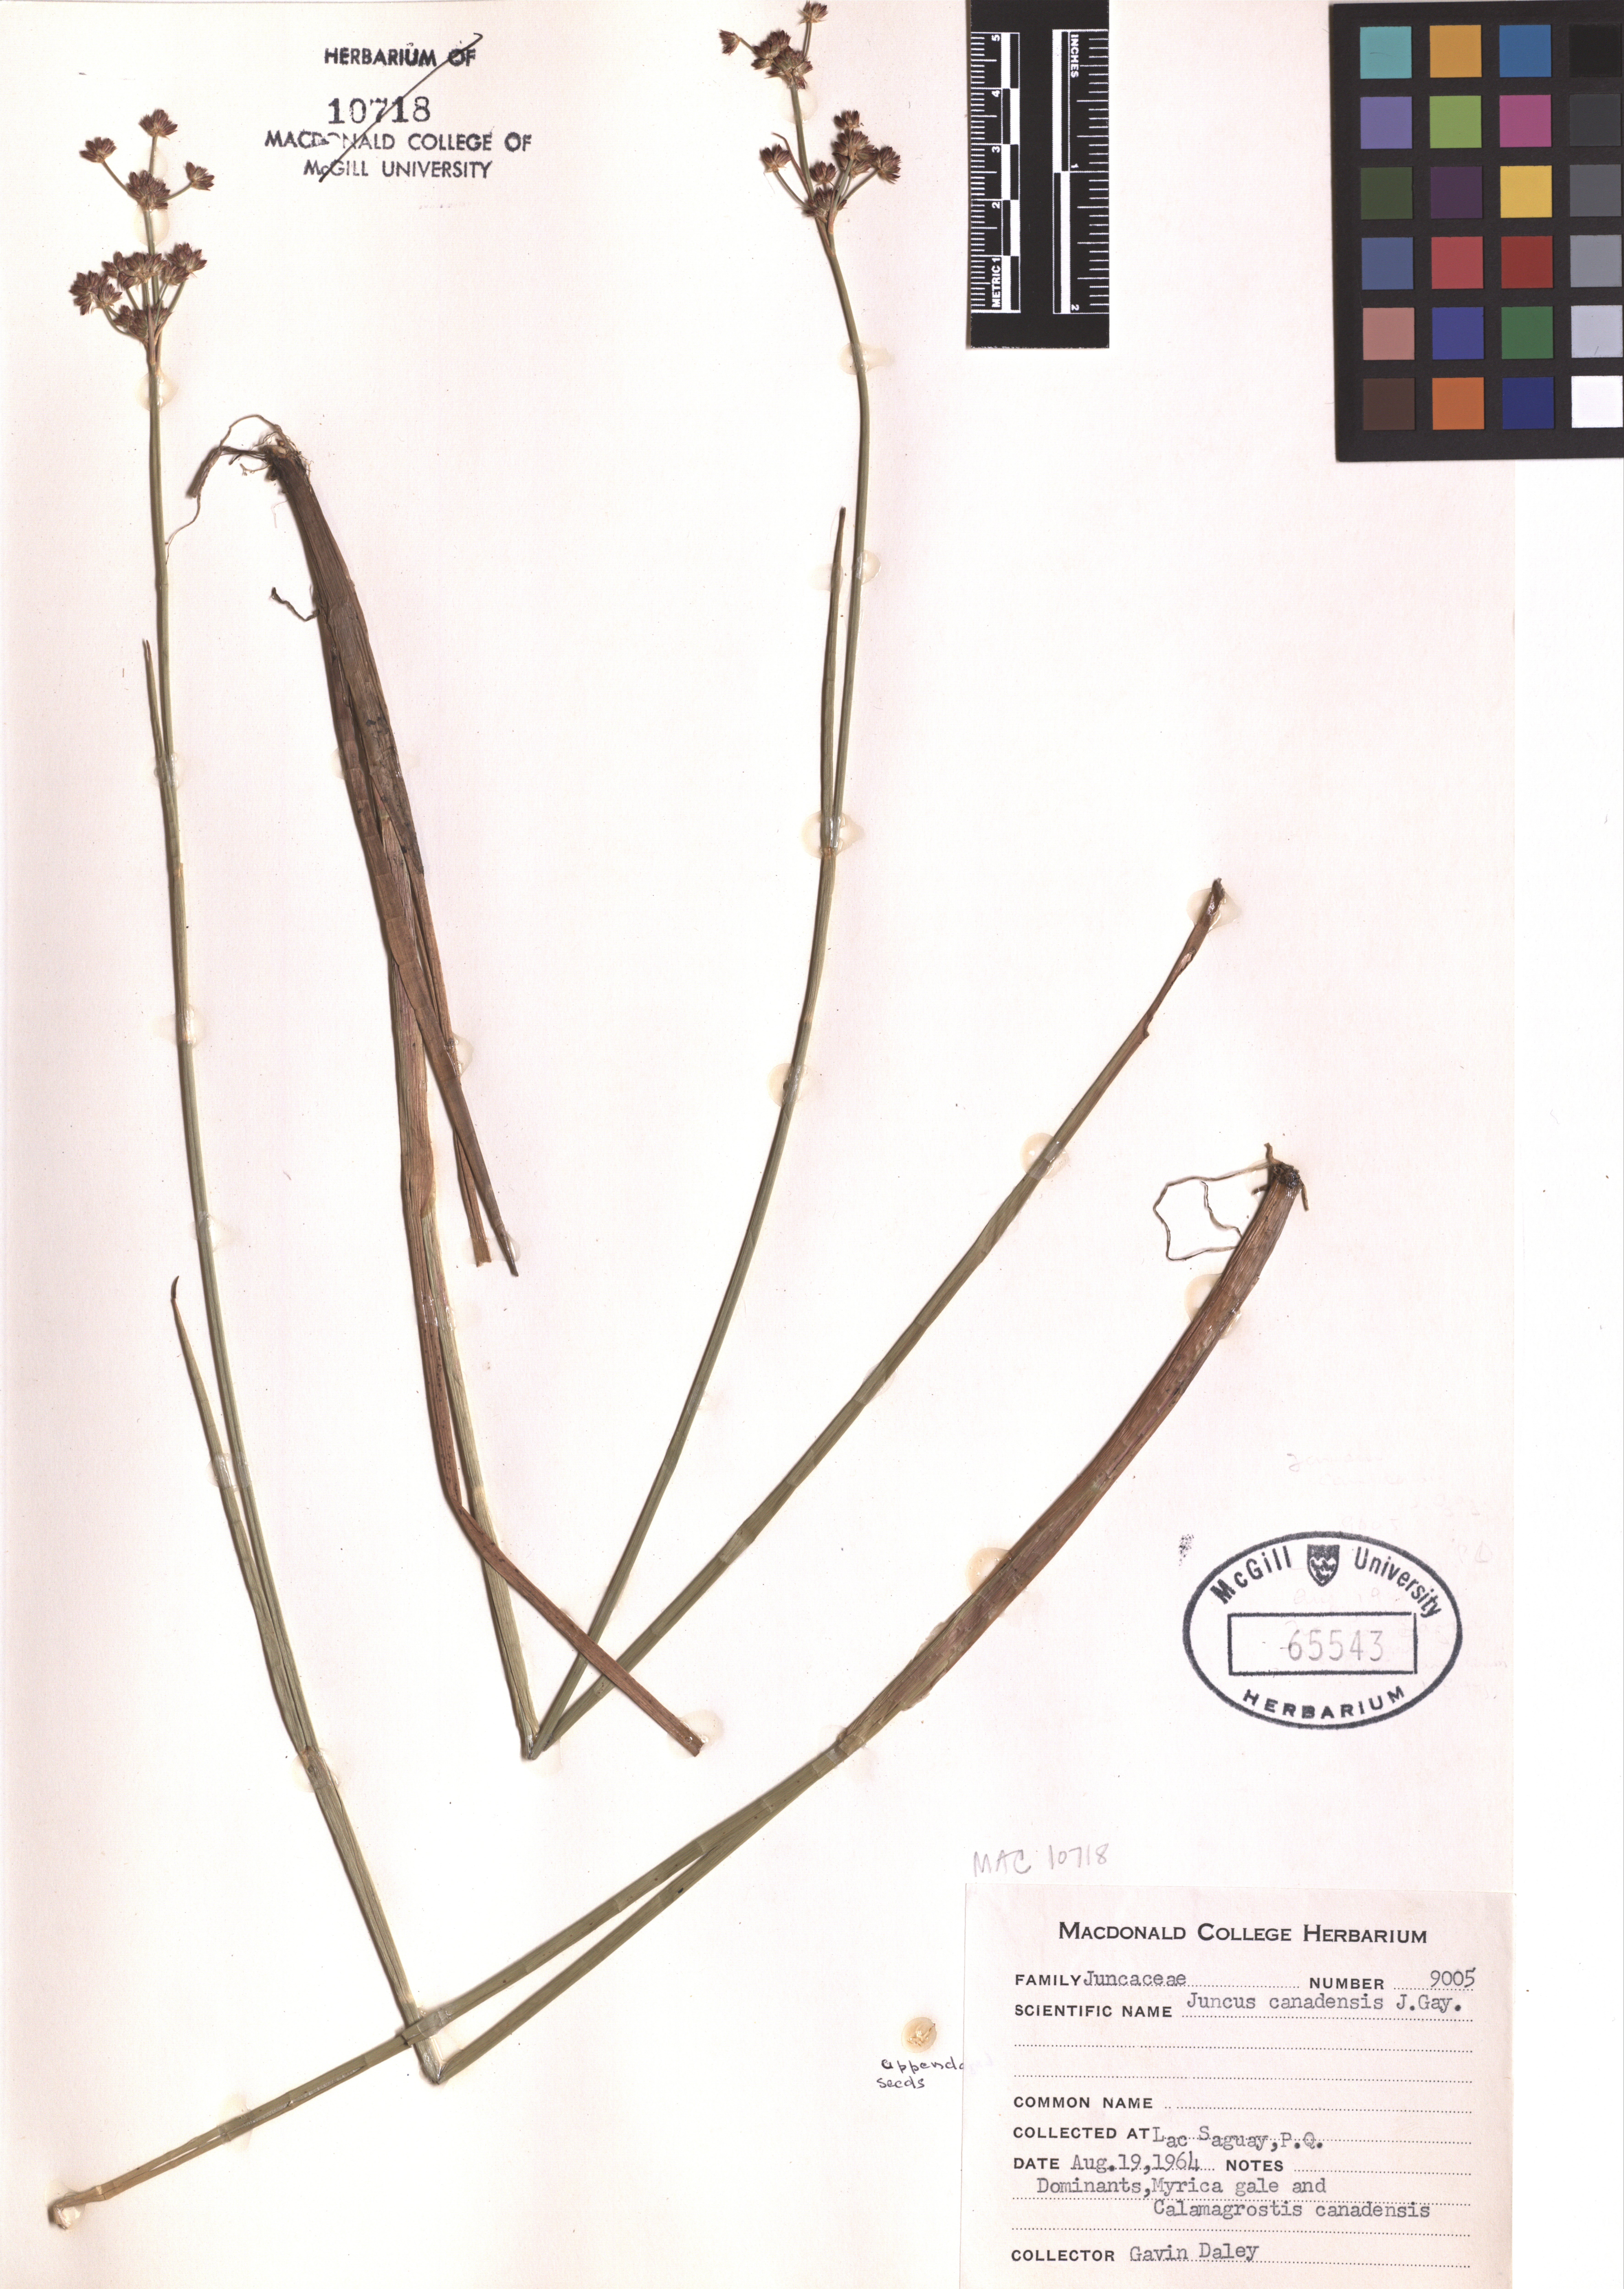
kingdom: Plantae
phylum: Tracheophyta
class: Liliopsida
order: Poales
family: Juncaceae
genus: Juncus
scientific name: Juncus canadensis
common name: Canada rush
